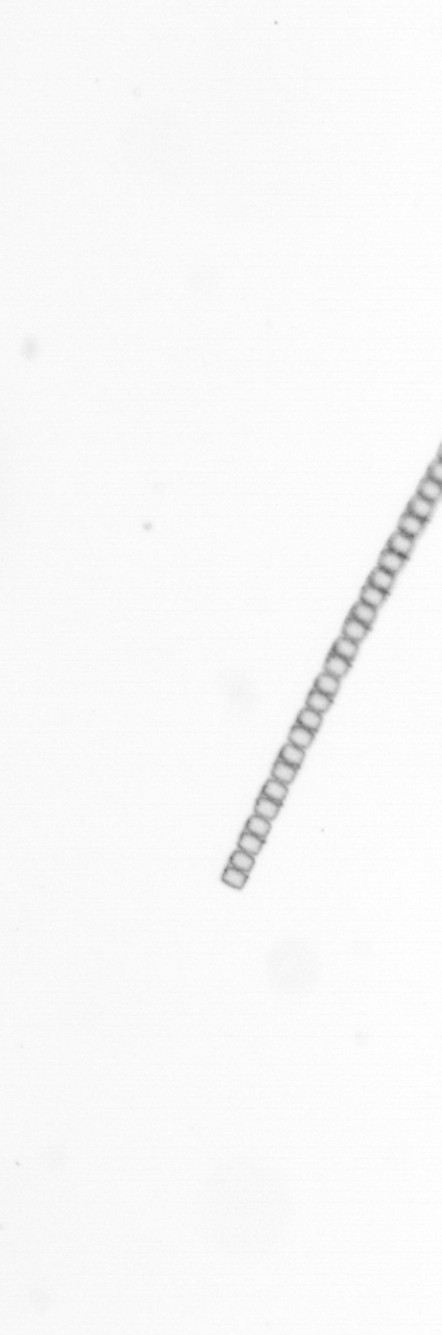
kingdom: Chromista
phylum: Ochrophyta
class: Bacillariophyceae
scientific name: Bacillariophyceae
